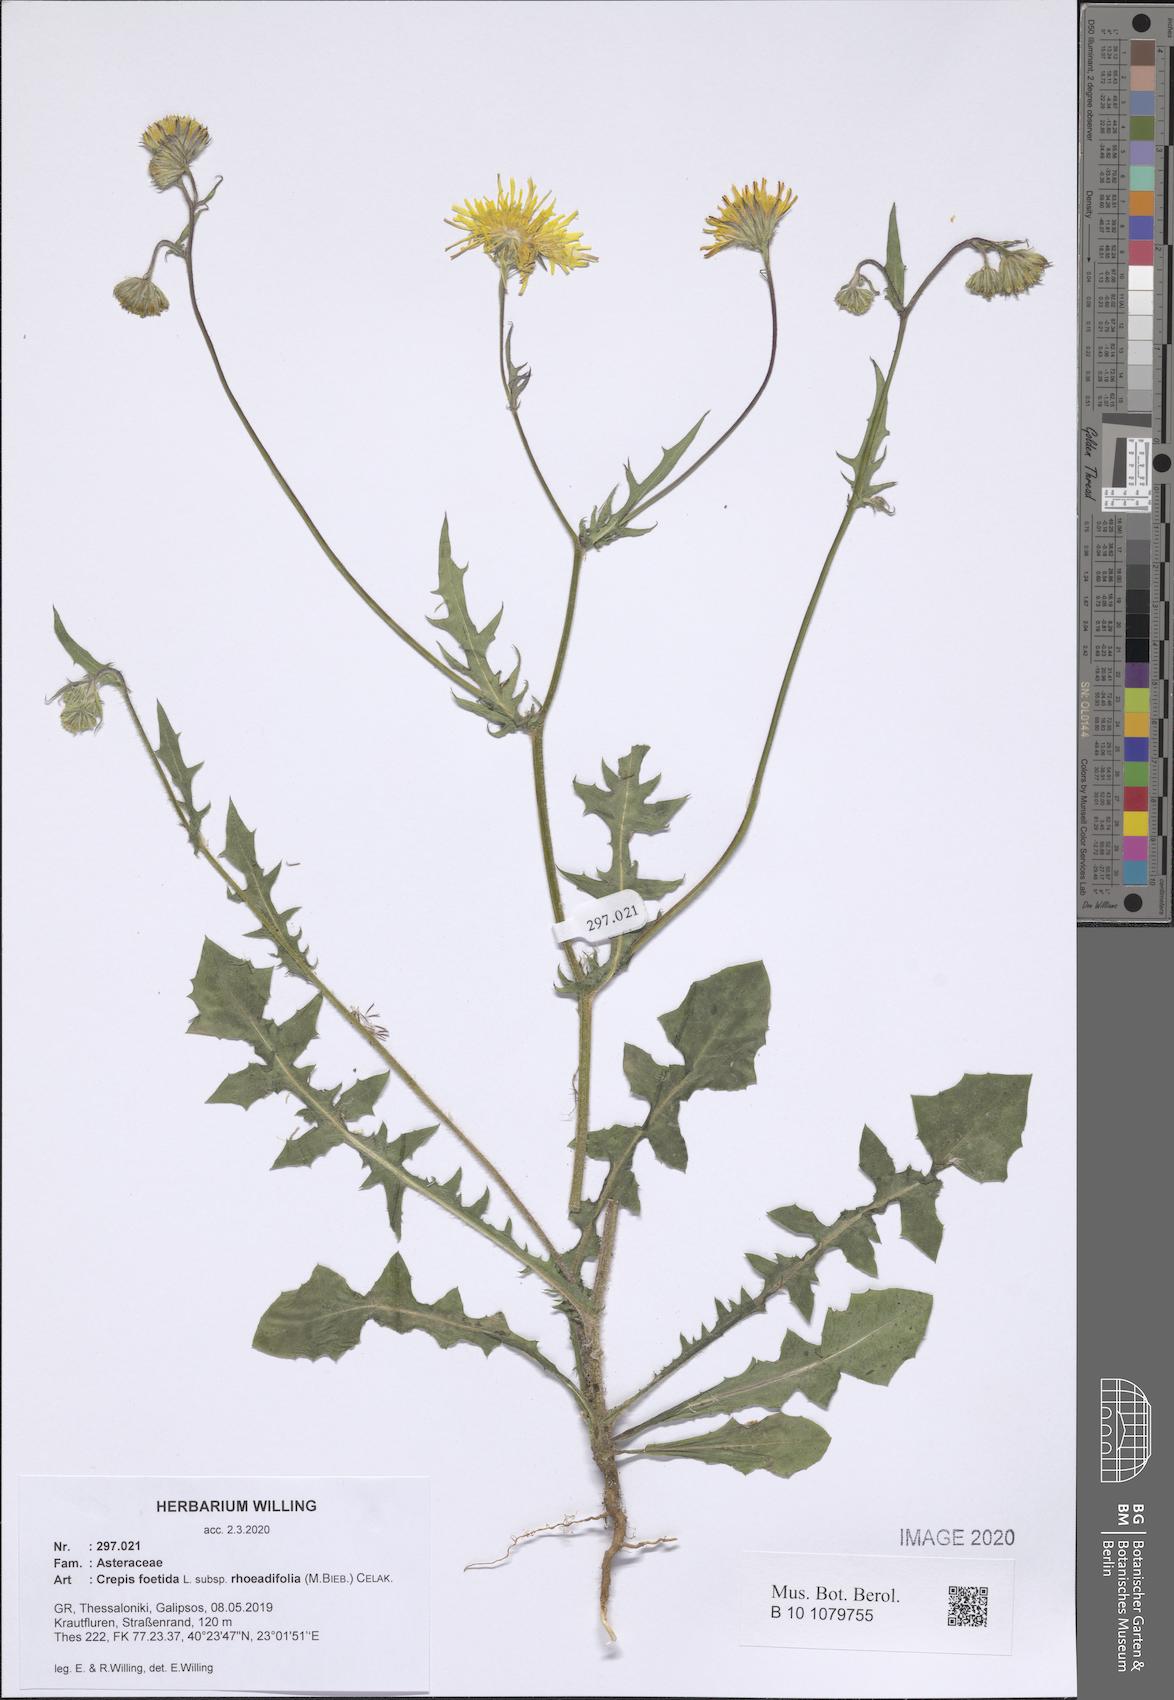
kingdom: Plantae
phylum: Tracheophyta
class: Magnoliopsida
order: Asterales
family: Asteraceae
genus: Crepis
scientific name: Crepis foetida
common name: Stinking hawk's-beard
